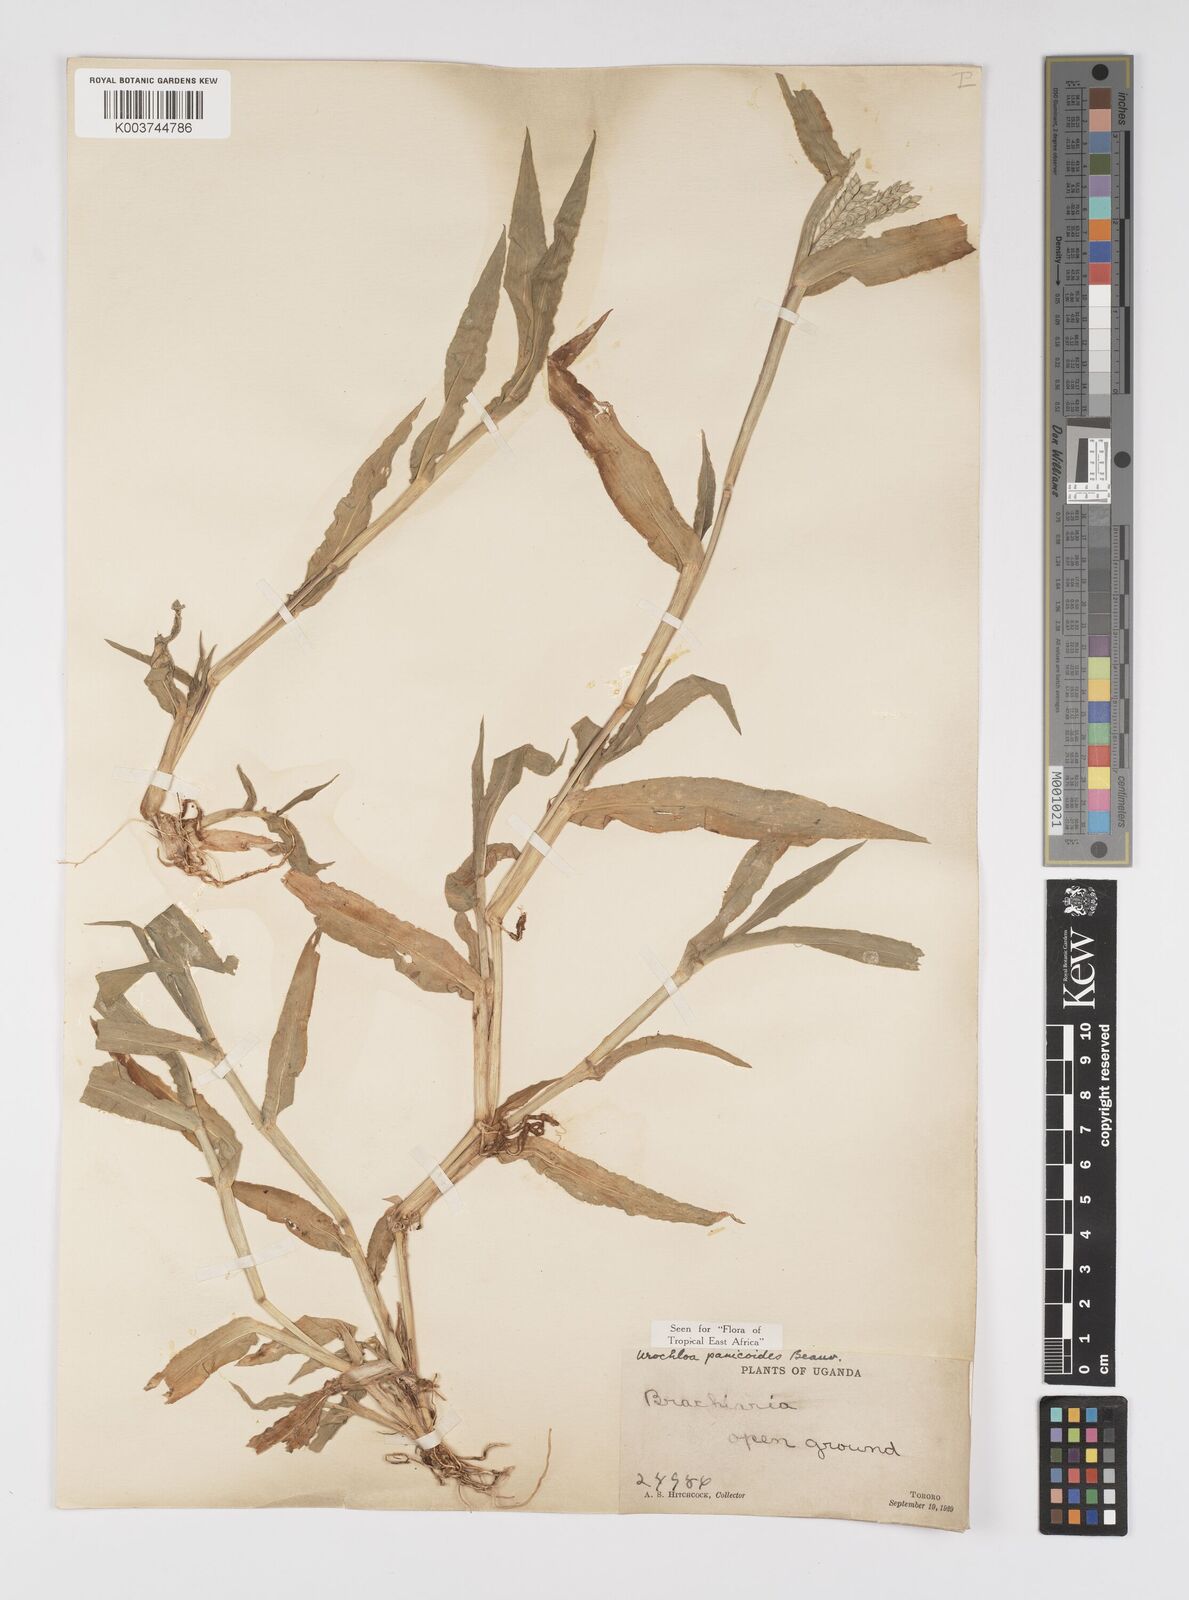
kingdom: Plantae
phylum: Tracheophyta
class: Liliopsida
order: Poales
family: Poaceae
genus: Urochloa
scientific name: Urochloa panicoides
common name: Sharp-flowered signal-grass
